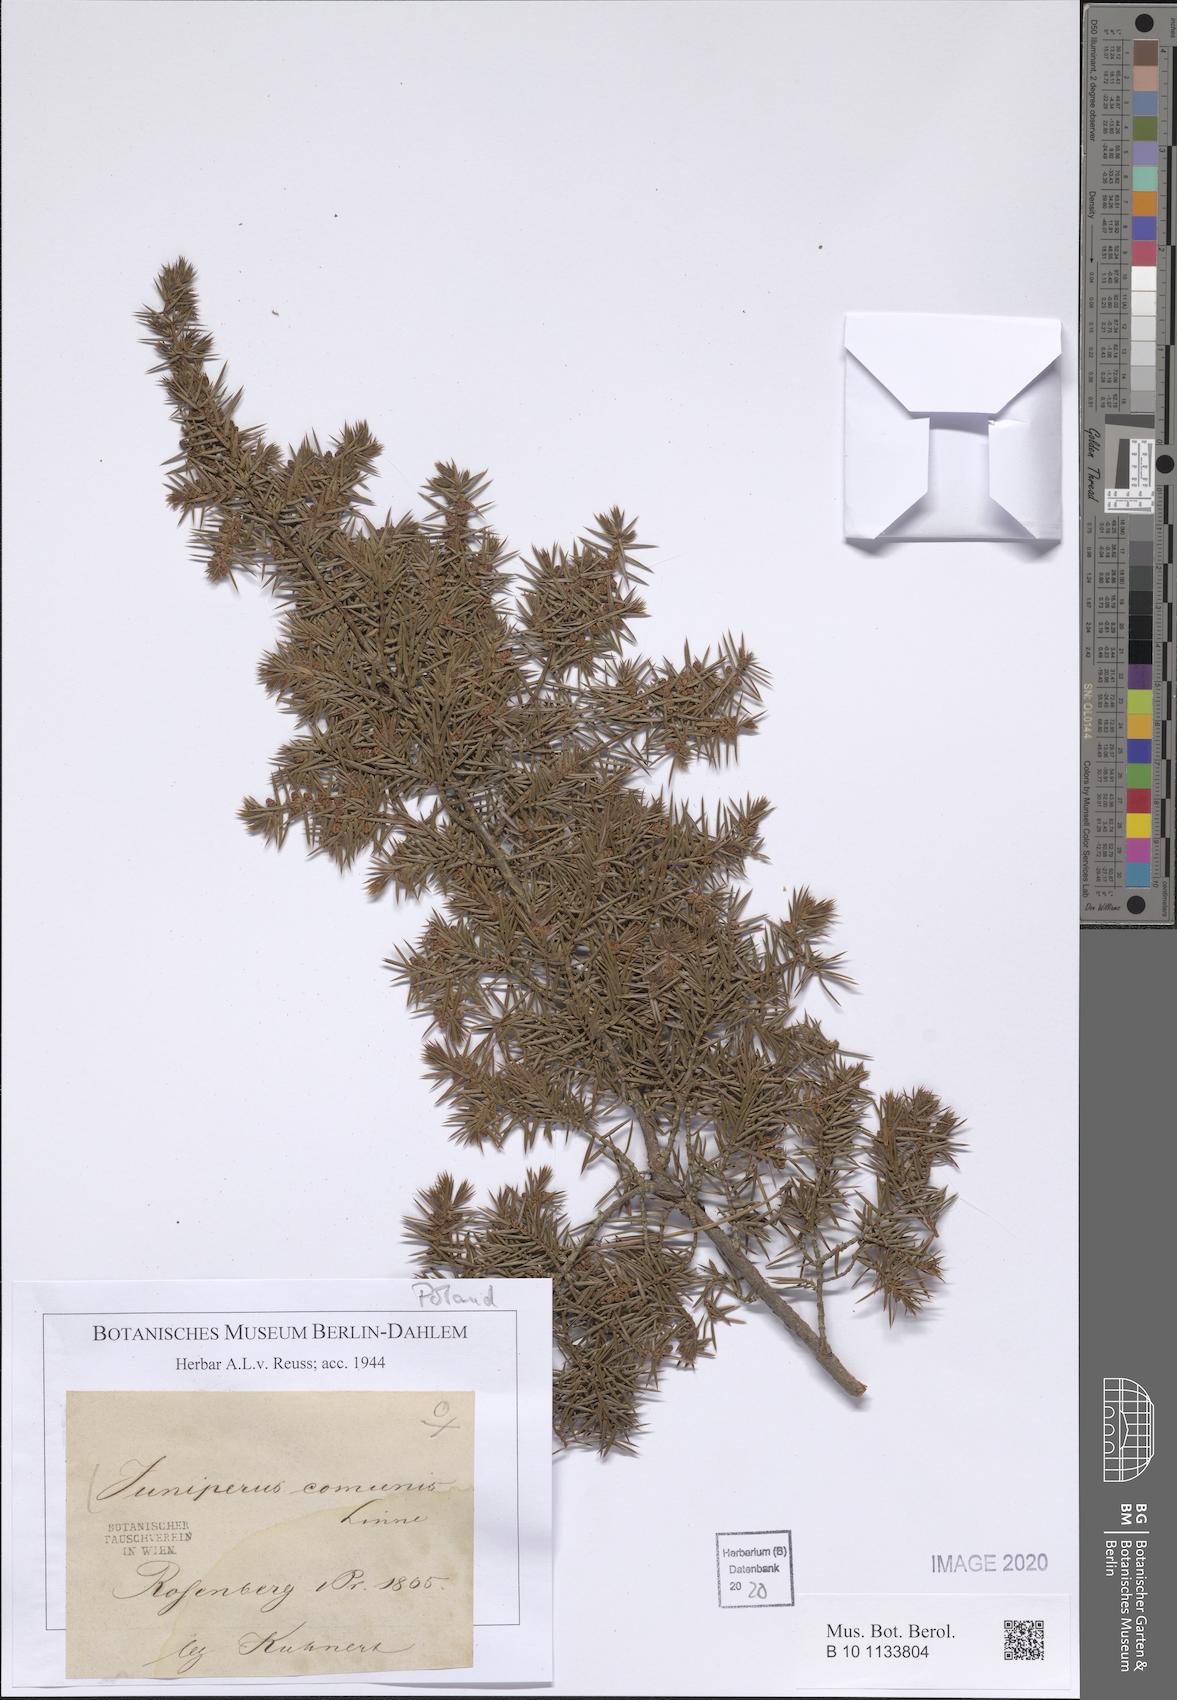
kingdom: Plantae
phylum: Tracheophyta
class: Pinopsida
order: Pinales
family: Cupressaceae
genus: Juniperus
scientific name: Juniperus communis
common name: Common juniper
